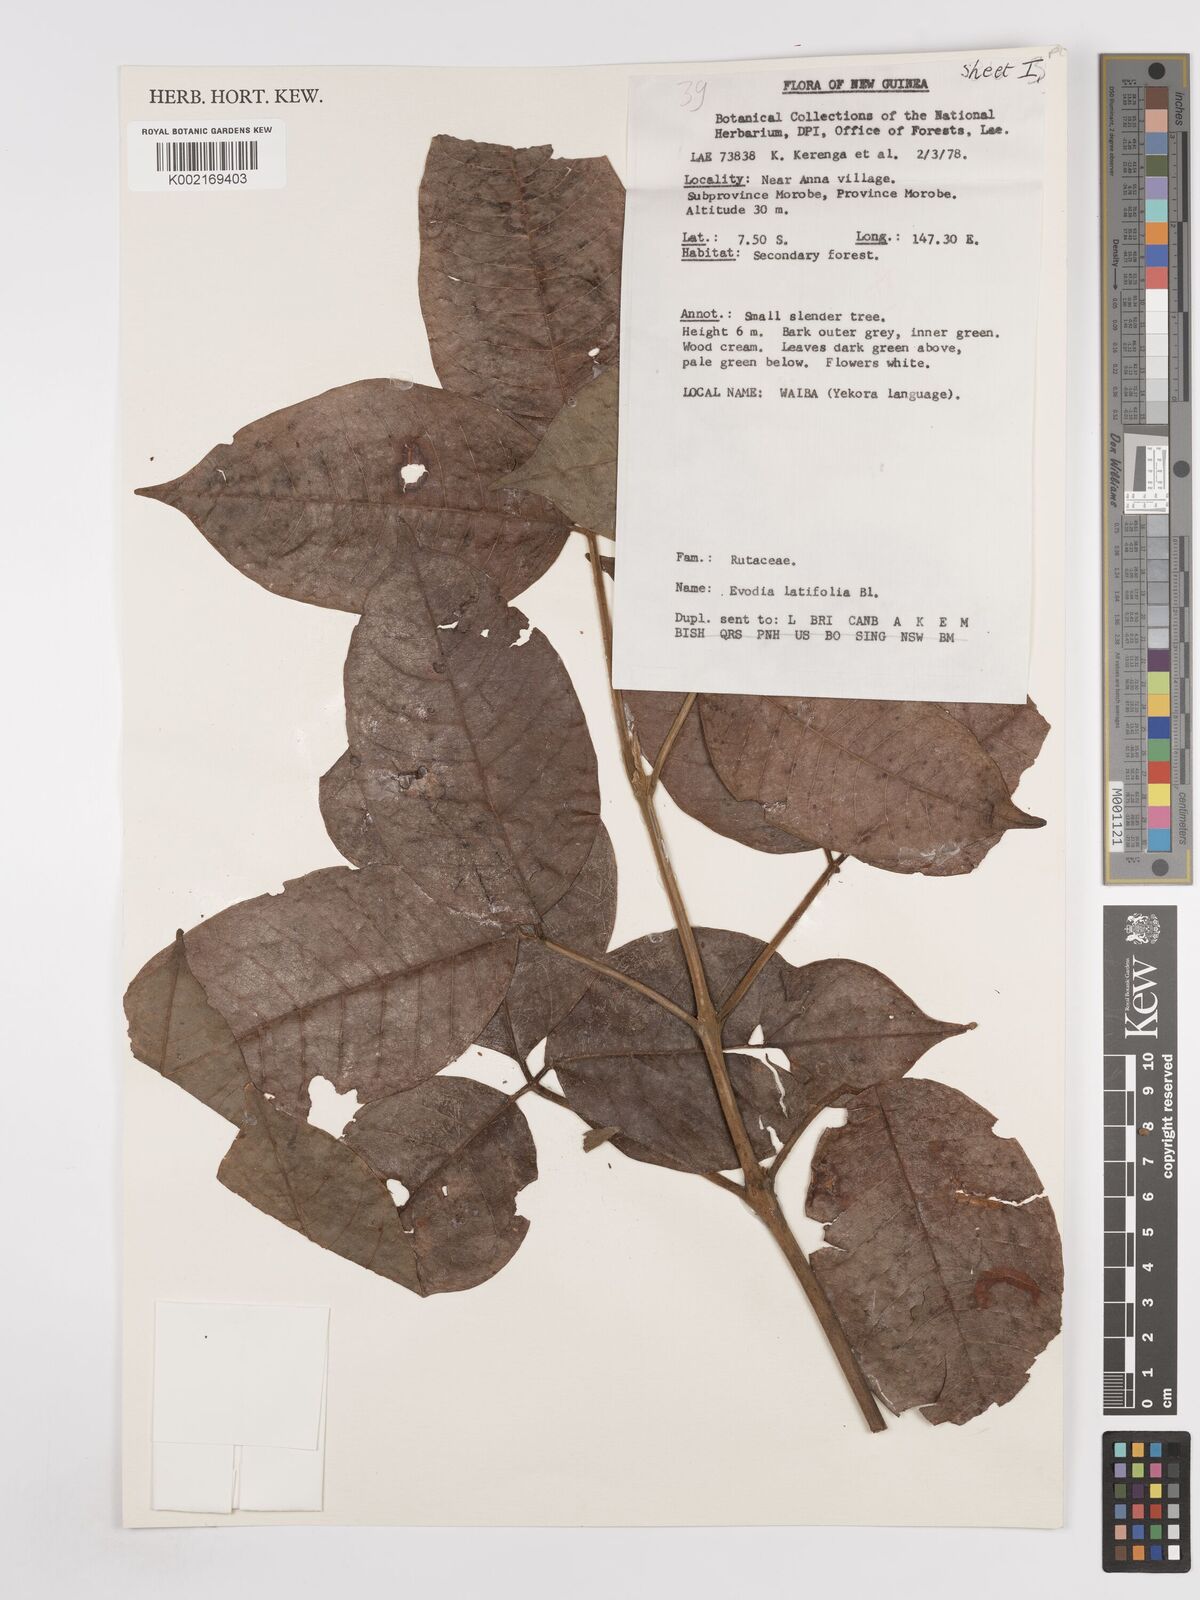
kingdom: Plantae
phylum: Tracheophyta
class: Magnoliopsida
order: Sapindales
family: Rutaceae
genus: Melicope
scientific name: Melicope latifolia
